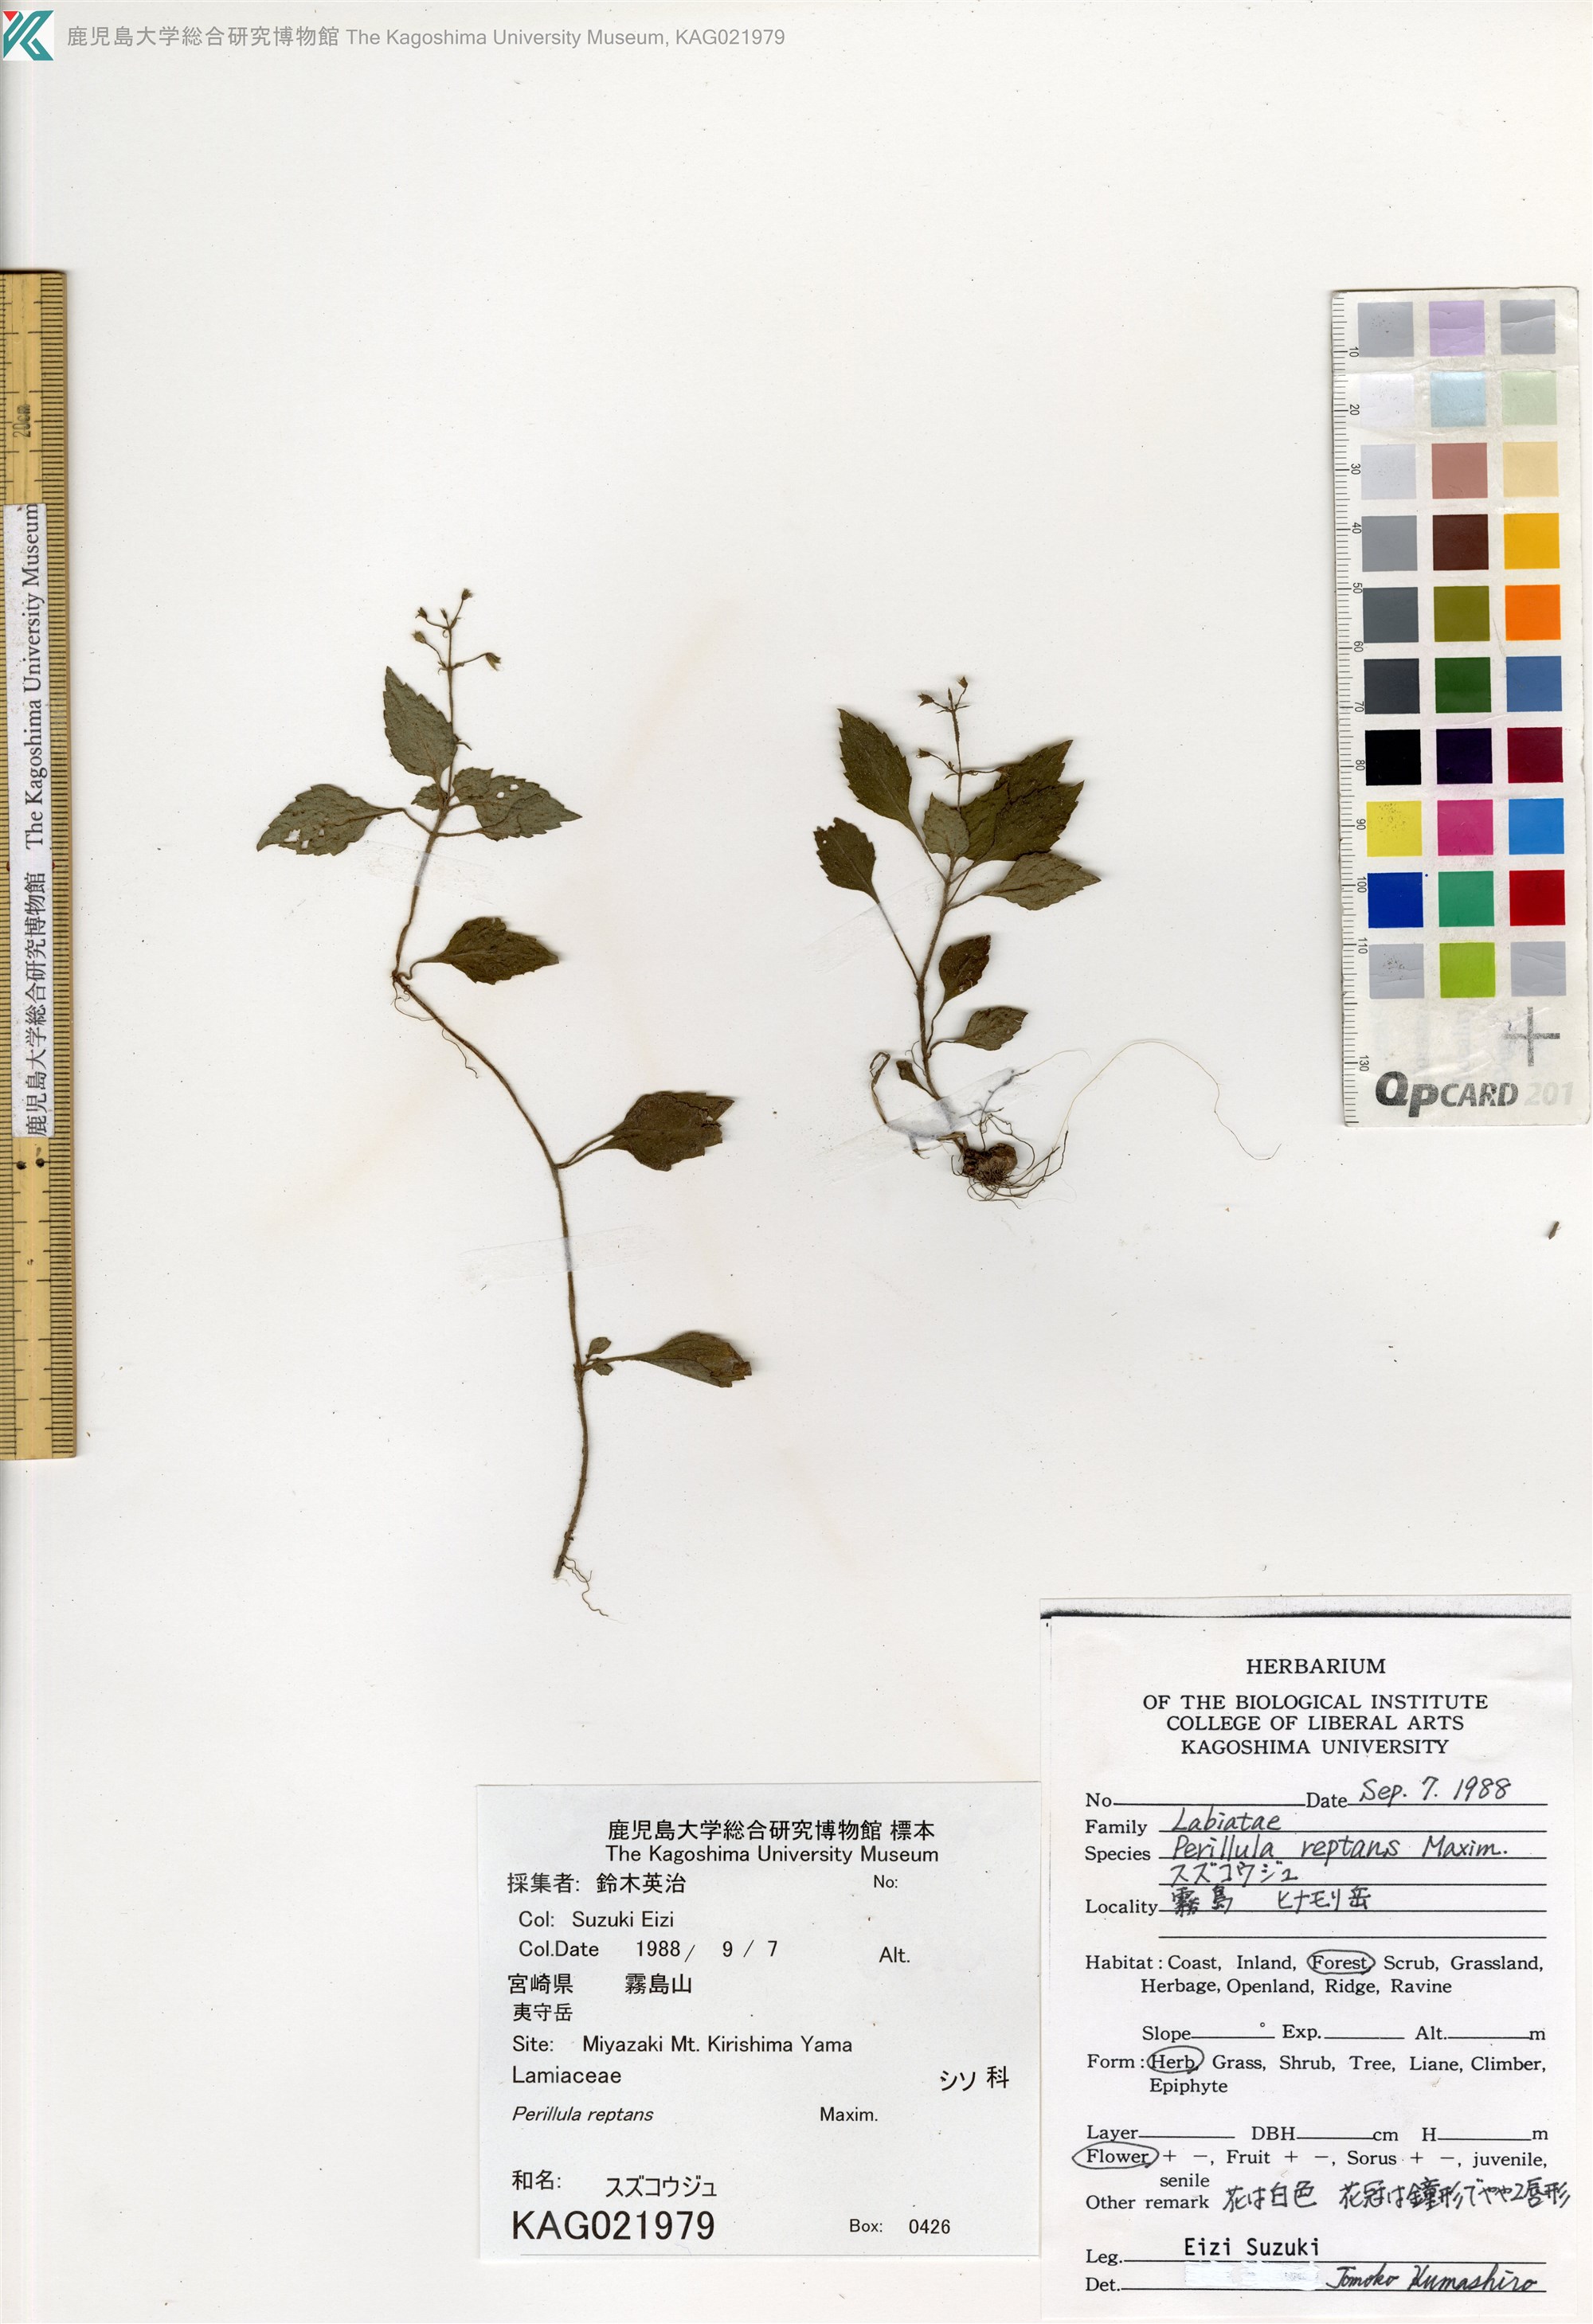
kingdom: Plantae
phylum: Tracheophyta
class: Magnoliopsida
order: Lamiales
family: Lamiaceae
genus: Perillula
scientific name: Perillula reptans
